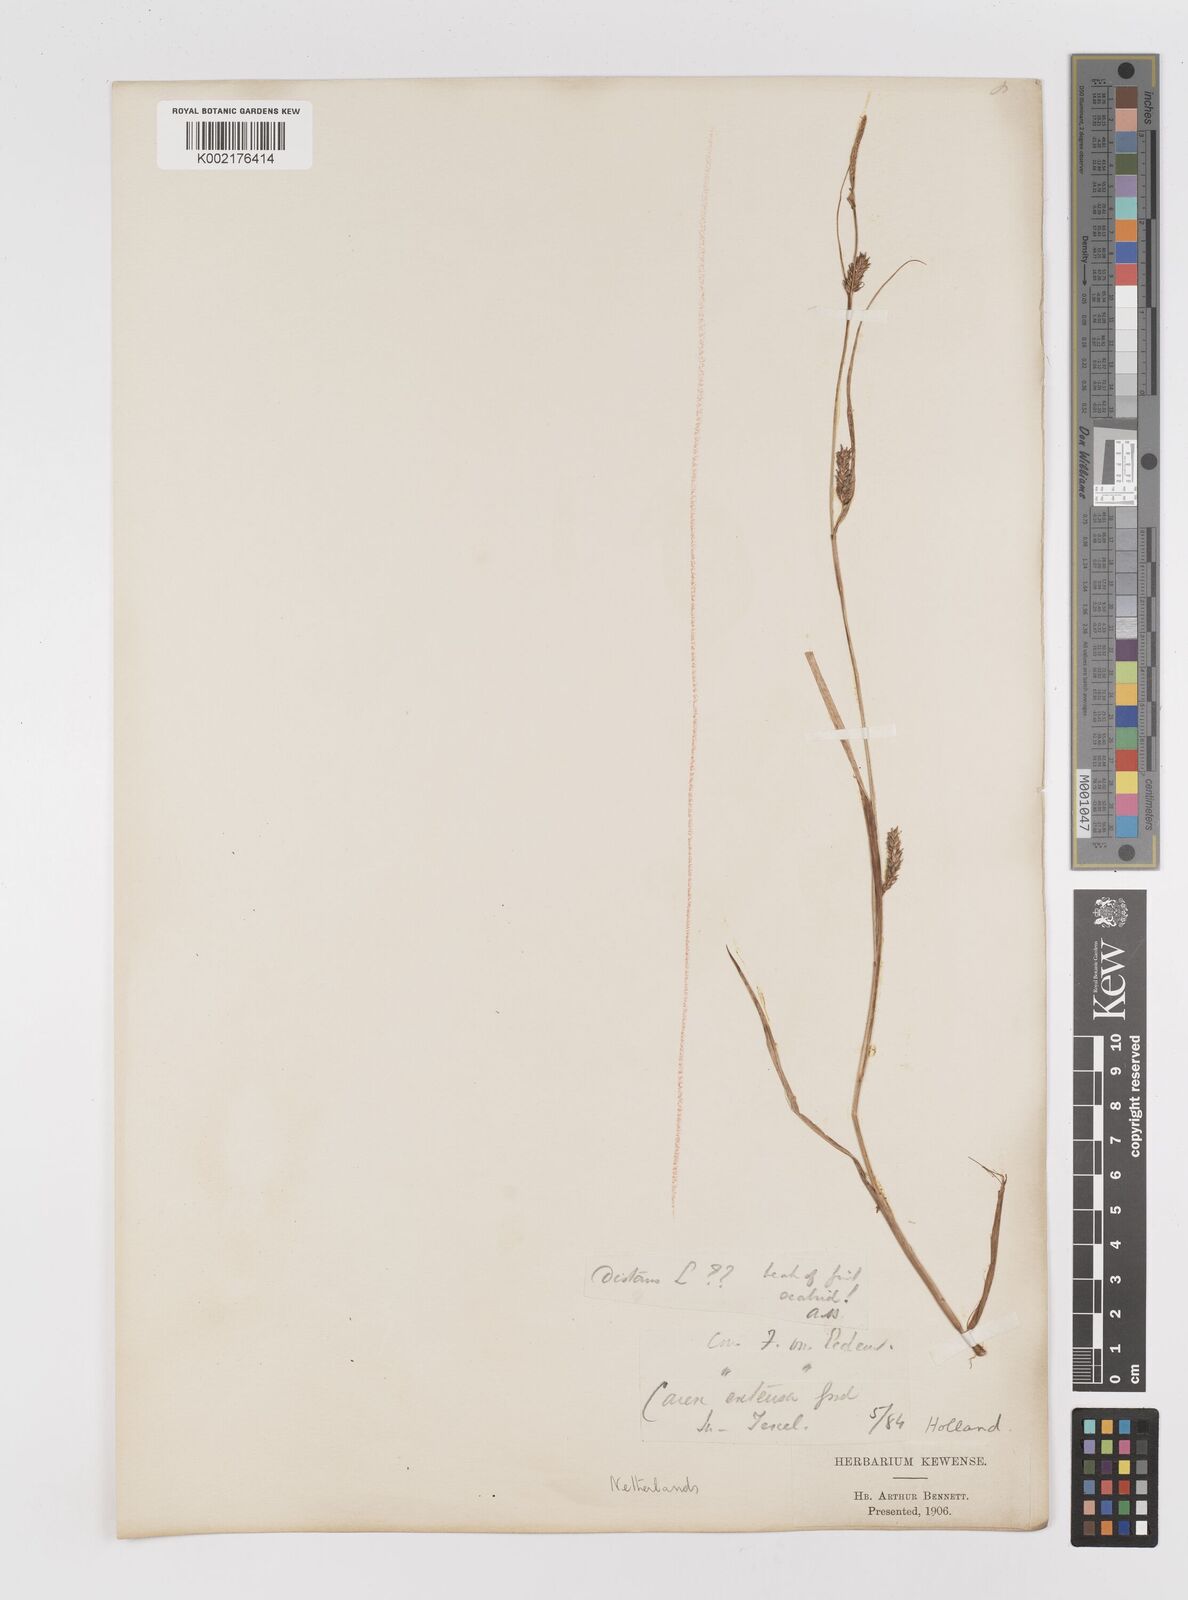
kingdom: Plantae
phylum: Tracheophyta
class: Liliopsida
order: Poales
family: Cyperaceae
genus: Carex
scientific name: Carex distans
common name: Distant sedge
